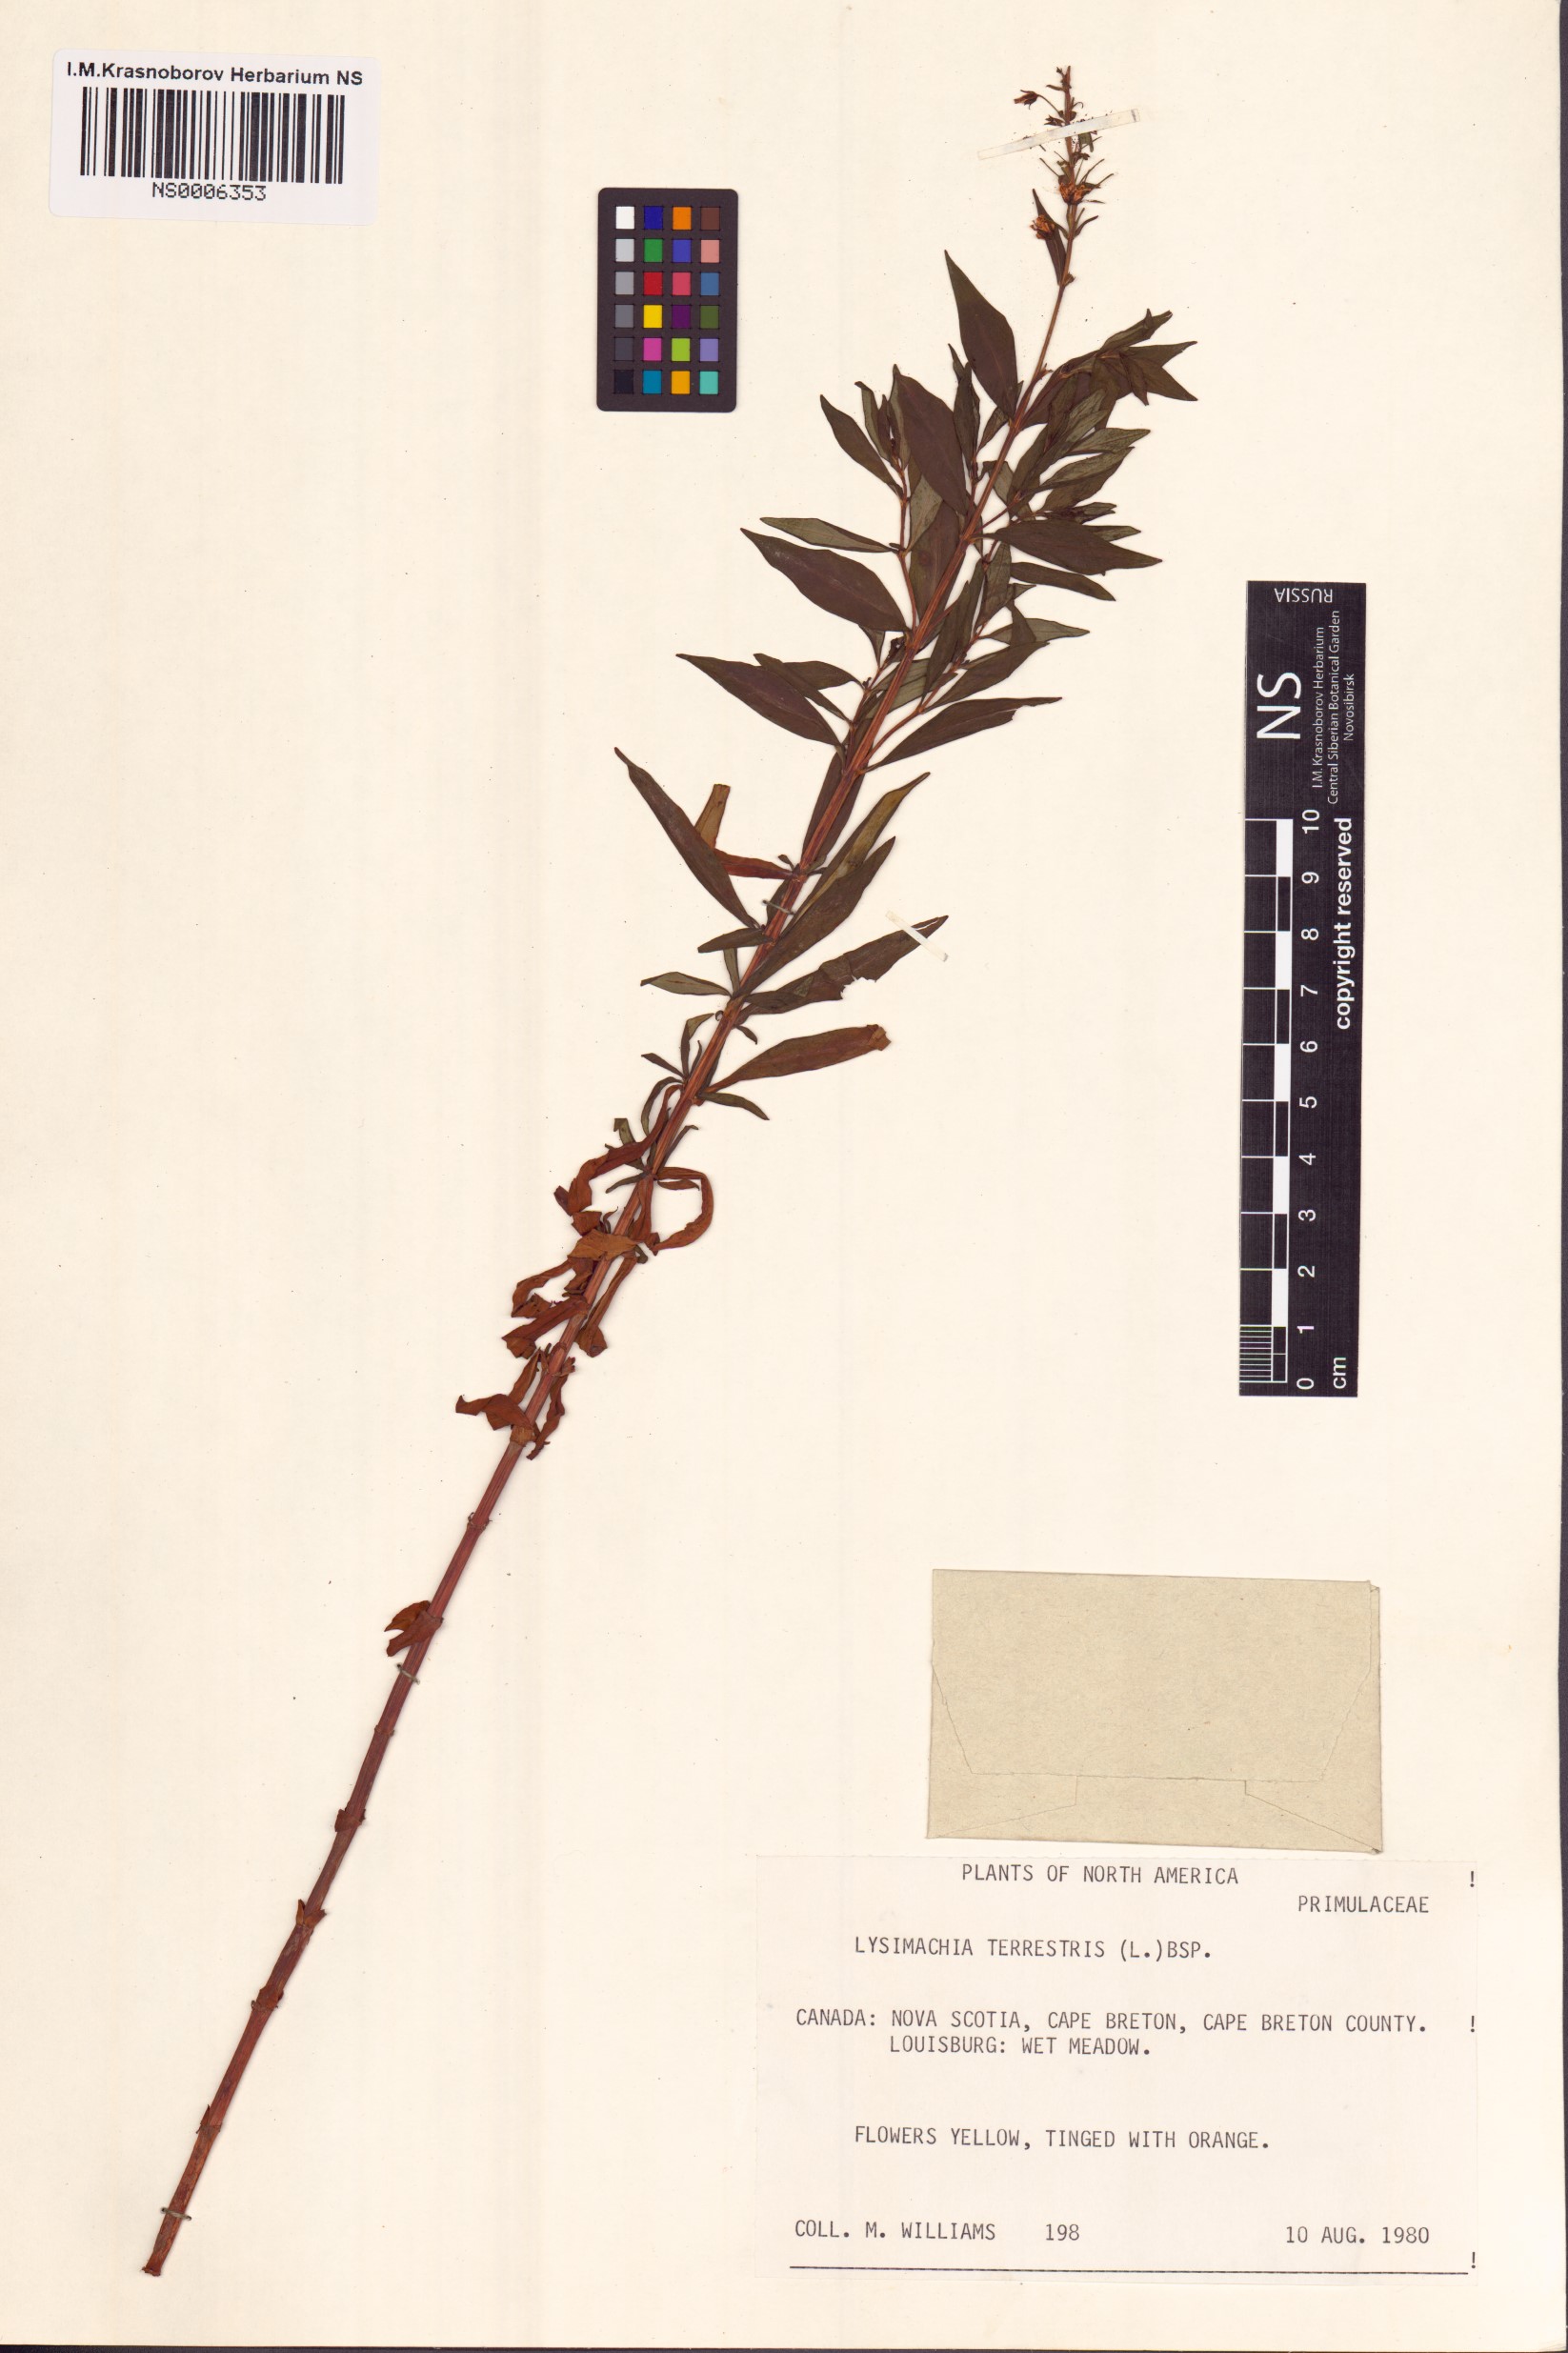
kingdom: Plantae
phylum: Tracheophyta
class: Magnoliopsida
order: Ericales
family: Primulaceae
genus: Lysimachia
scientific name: Lysimachia terrestris
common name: Lake loosestrife
